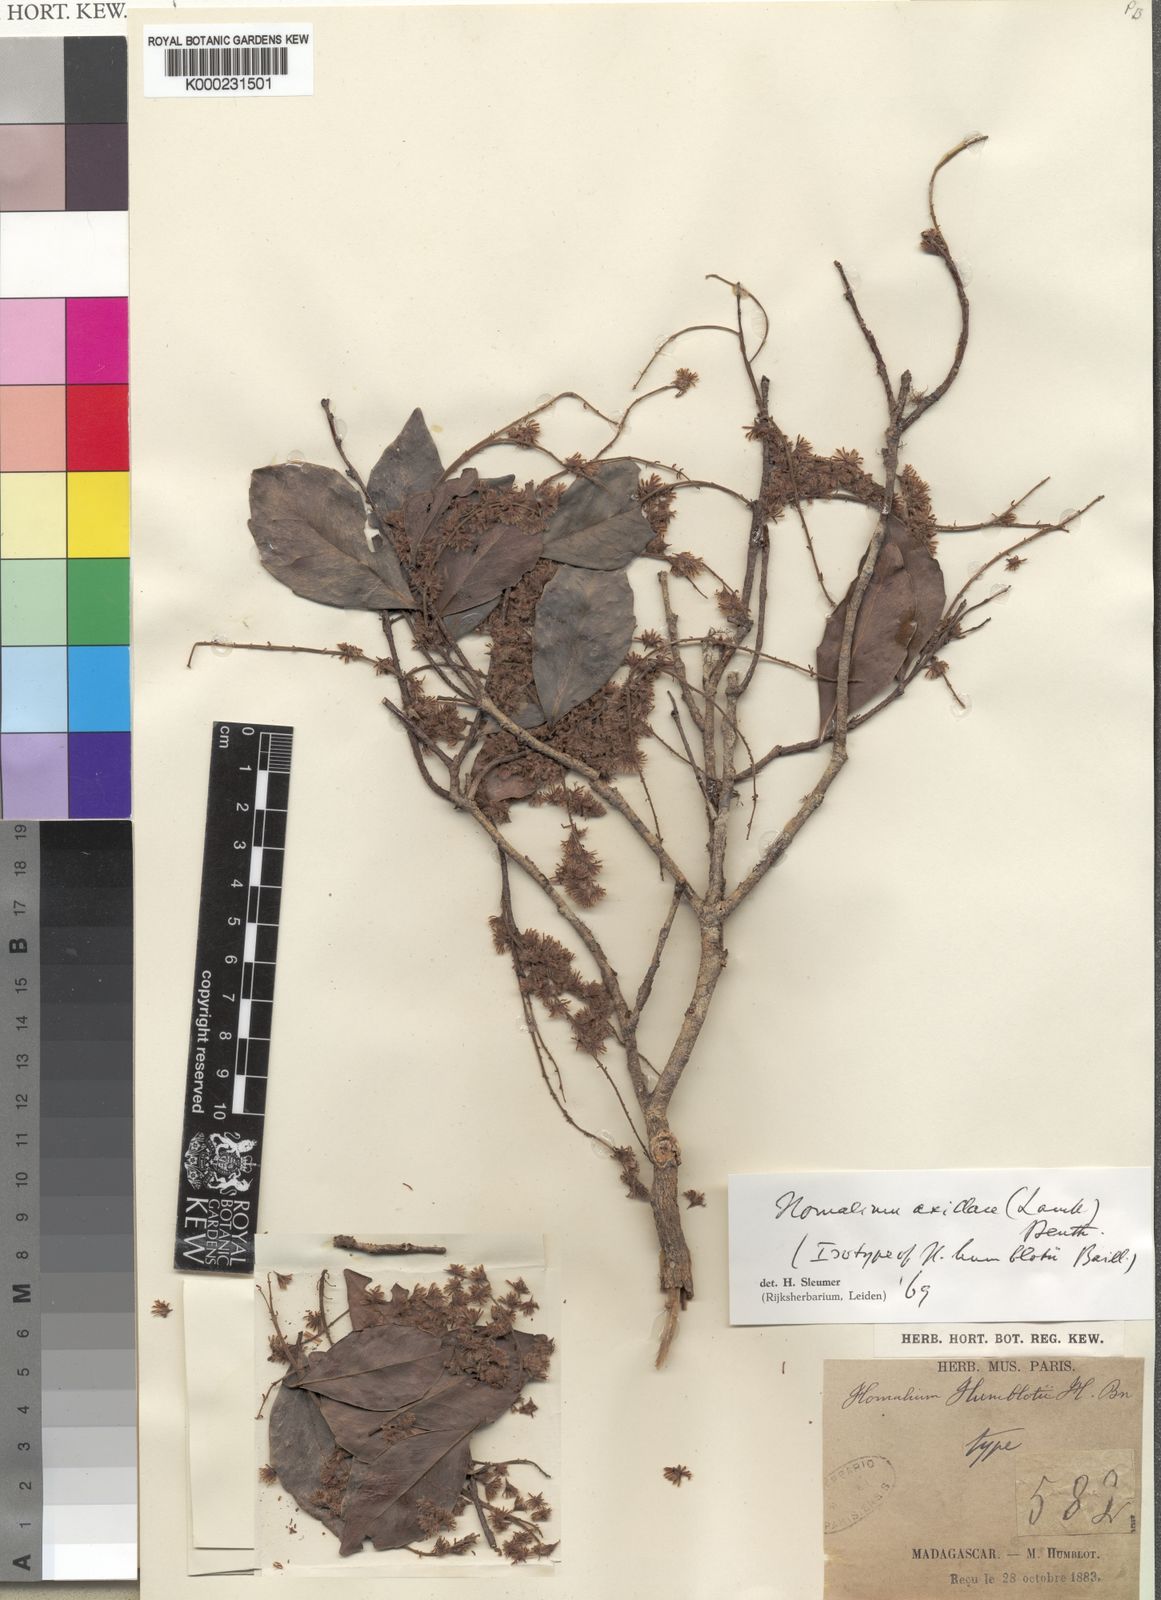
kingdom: Plantae
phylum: Tracheophyta
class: Magnoliopsida
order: Malpighiales
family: Salicaceae
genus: Homalium
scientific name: Homalium axillare
